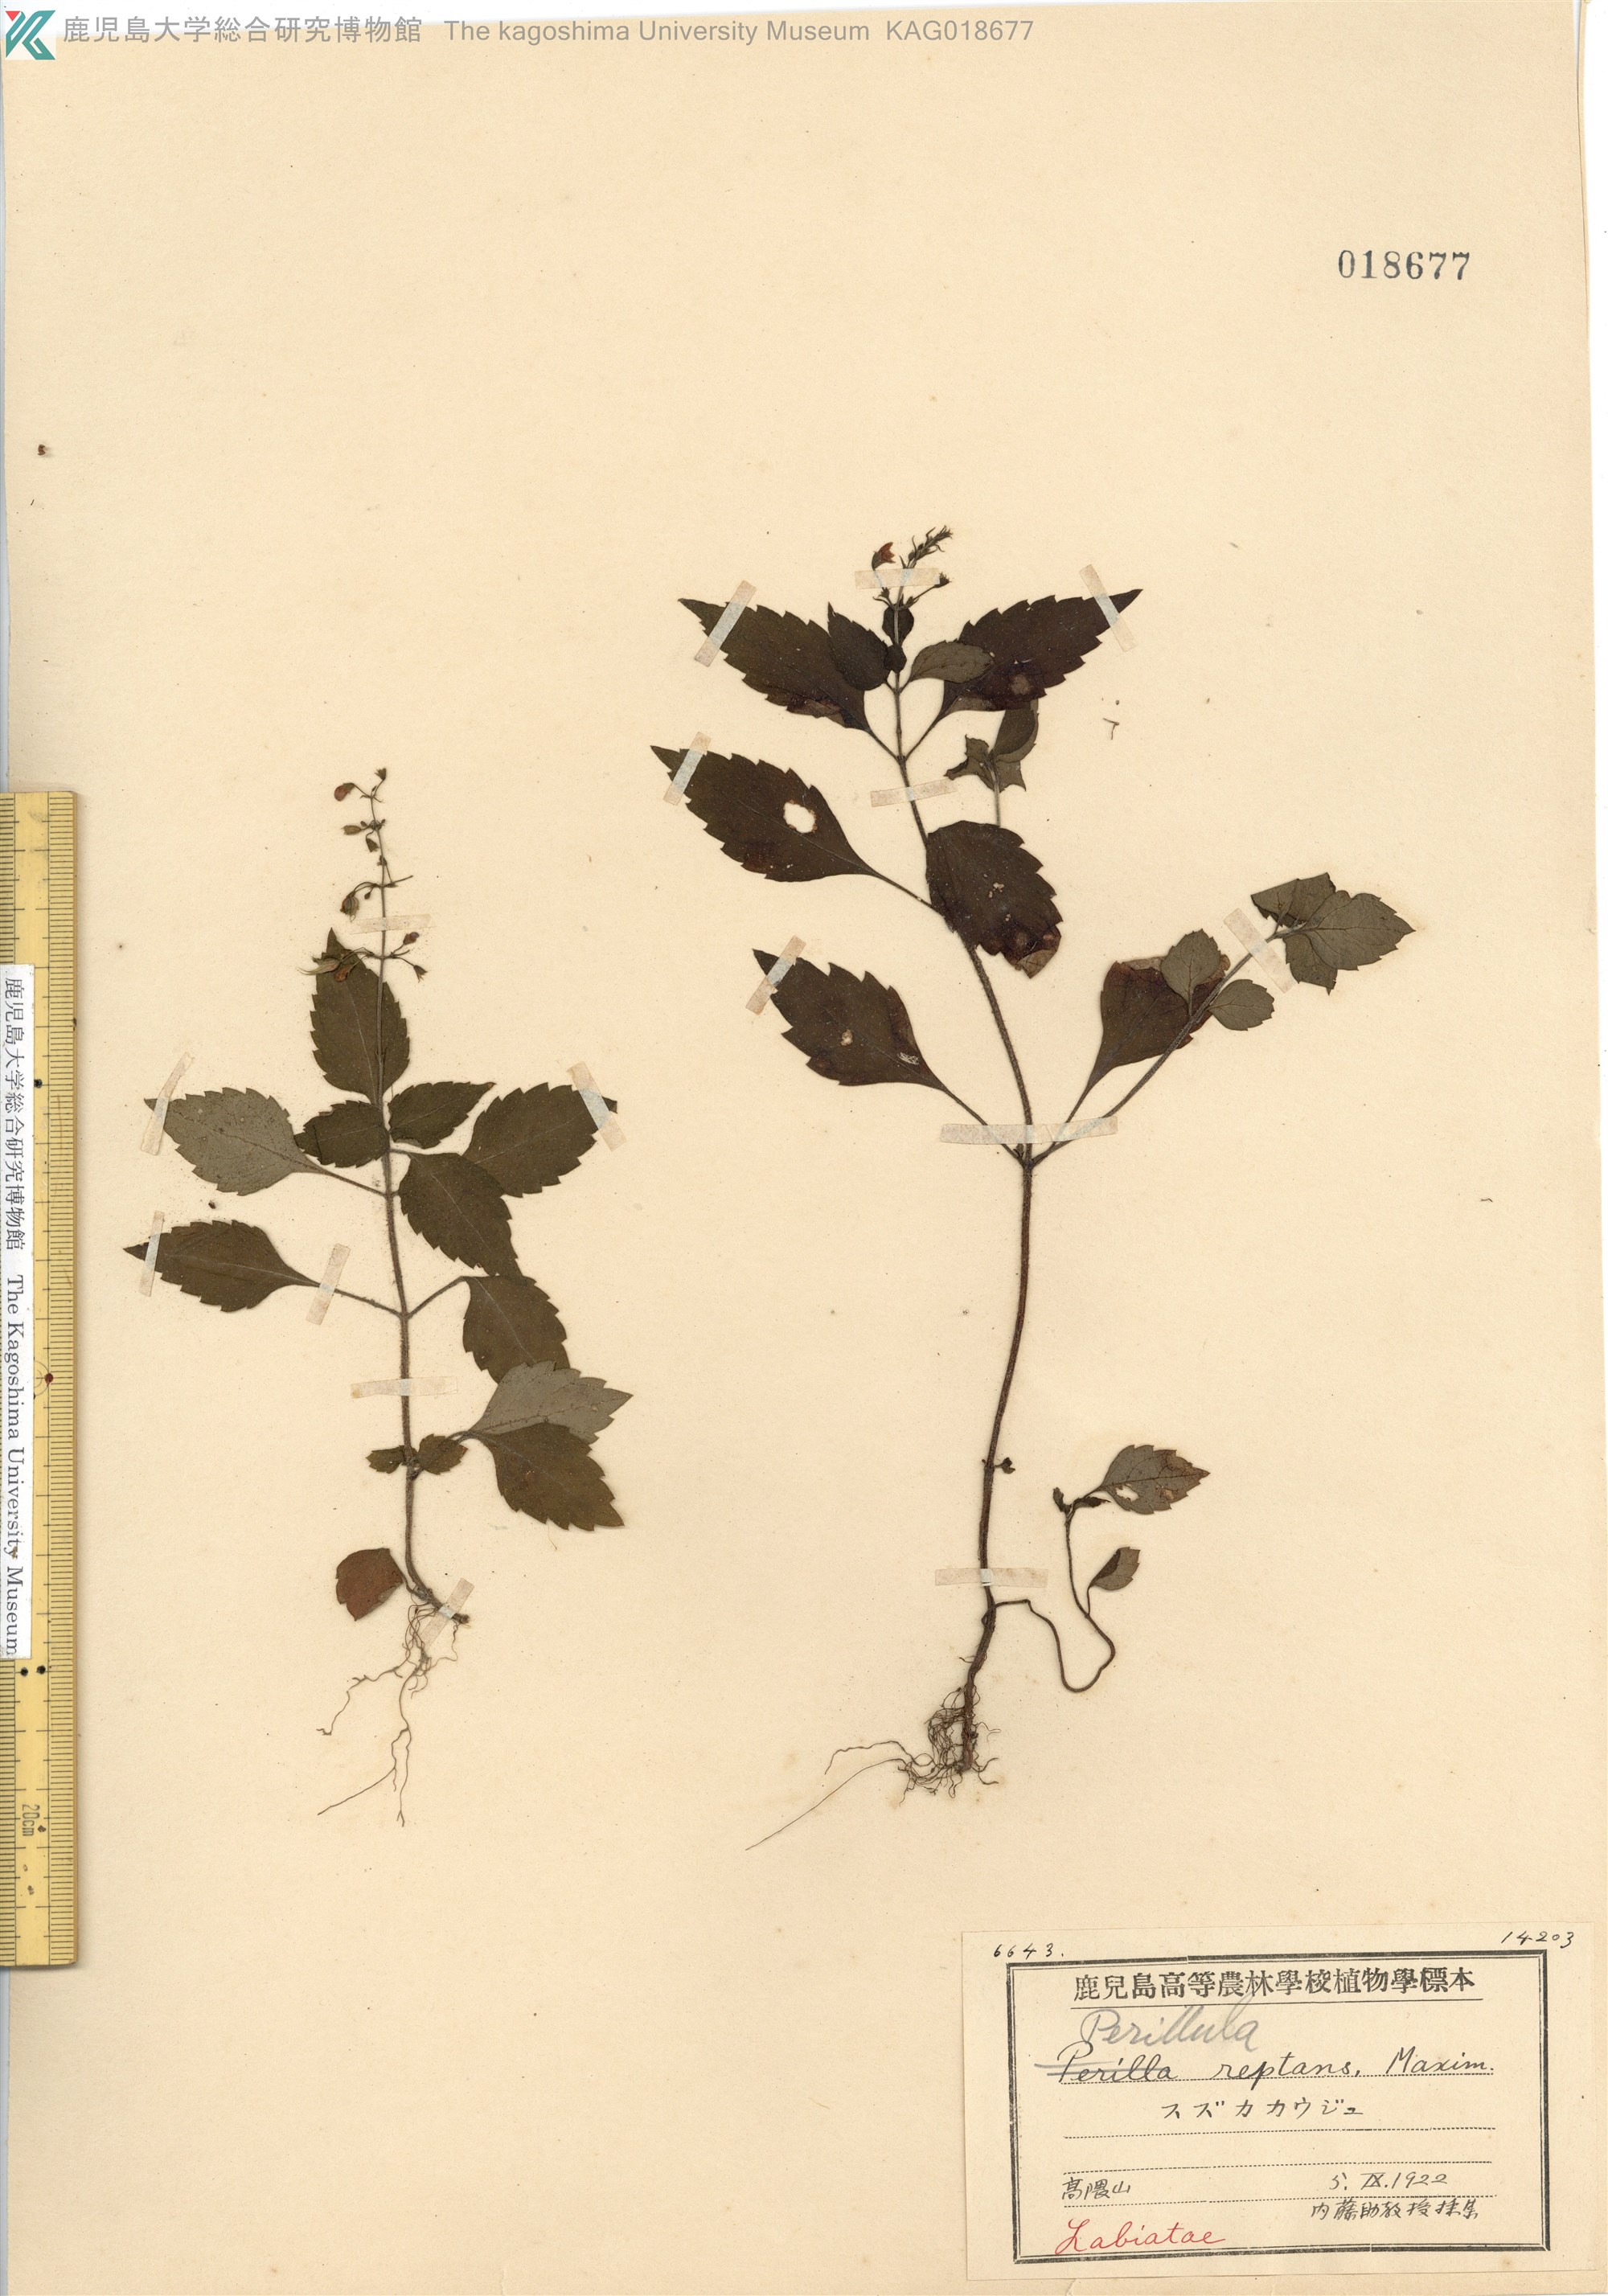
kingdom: Plantae
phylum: Tracheophyta
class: Magnoliopsida
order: Lamiales
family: Lamiaceae
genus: Perillula
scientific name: Perillula reptans
